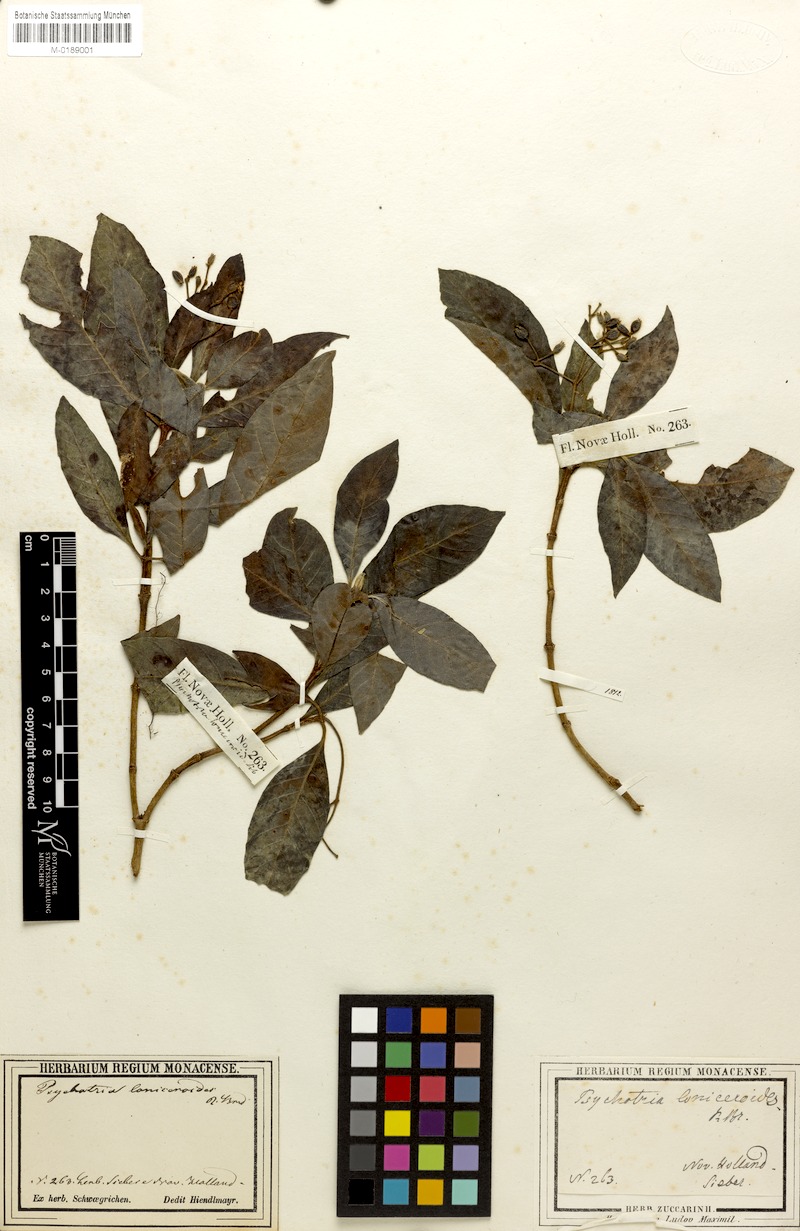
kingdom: Plantae
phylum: Tracheophyta
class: Magnoliopsida
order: Gentianales
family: Rubiaceae
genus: Psychotria
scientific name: Psychotria loniceroides
